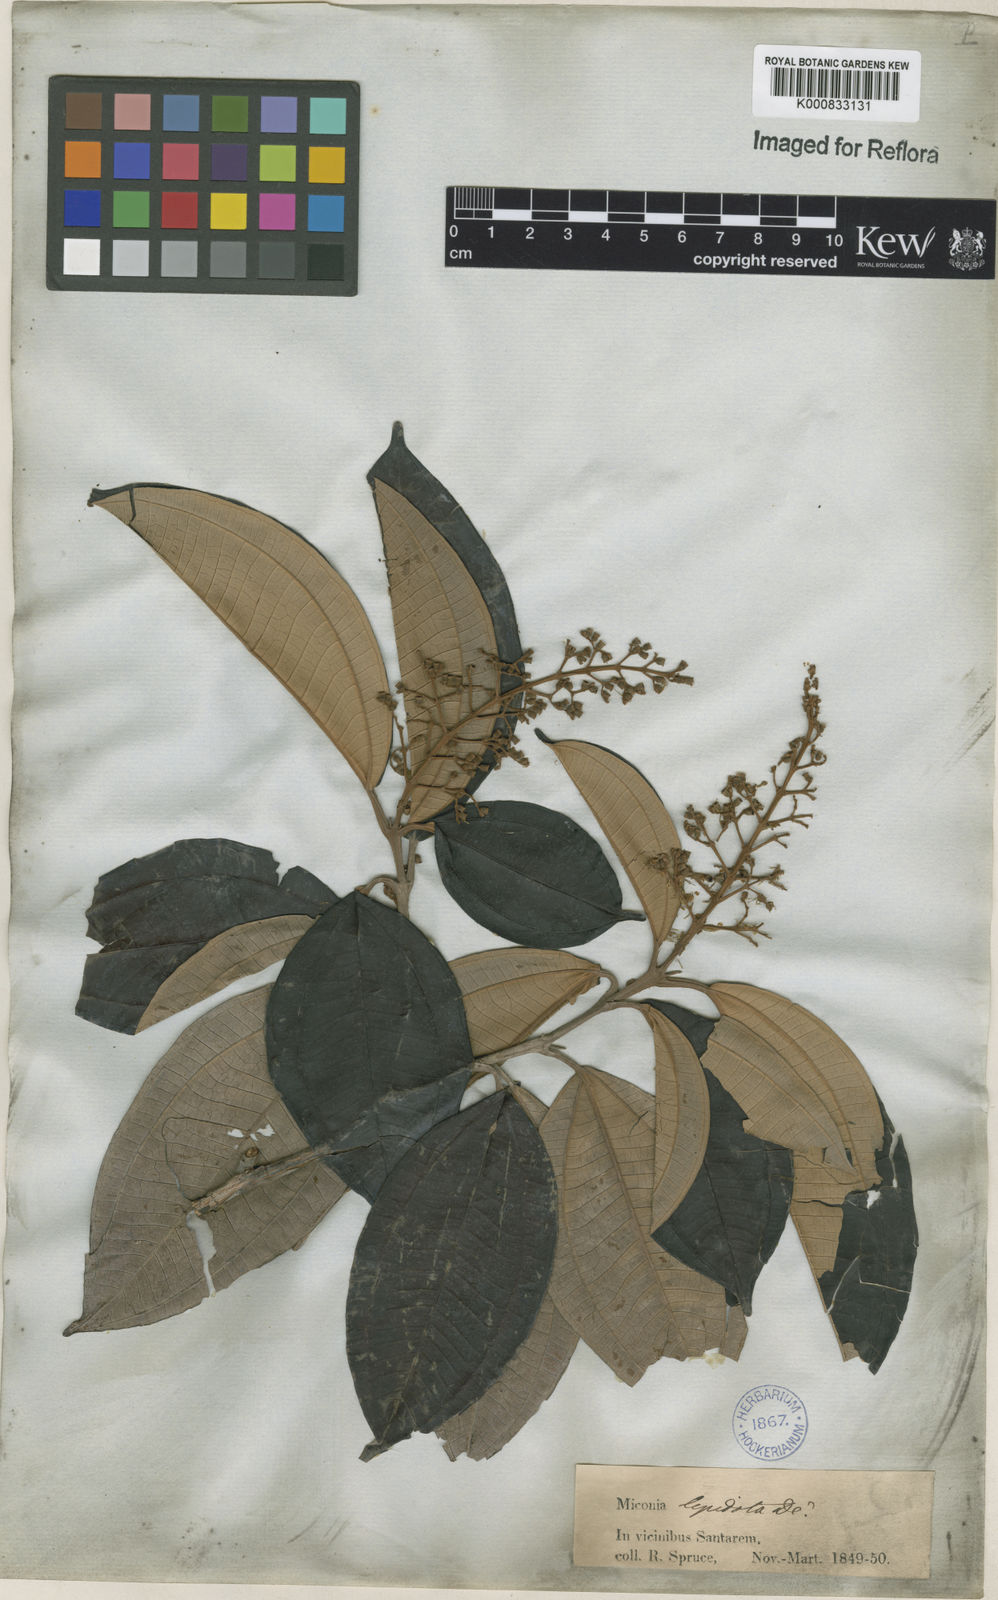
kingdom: Plantae
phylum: Tracheophyta
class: Magnoliopsida
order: Myrtales
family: Melastomataceae
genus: Miconia
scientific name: Miconia lepidota
